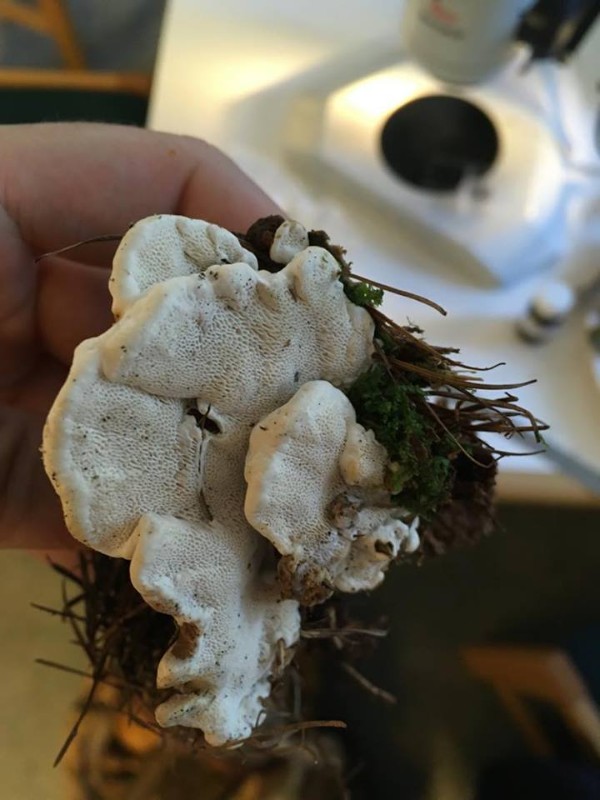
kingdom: Fungi
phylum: Basidiomycota
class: Agaricomycetes
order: Russulales
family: Bondarzewiaceae
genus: Heterobasidion
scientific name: Heterobasidion annosum
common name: almindelig rodfordærver
